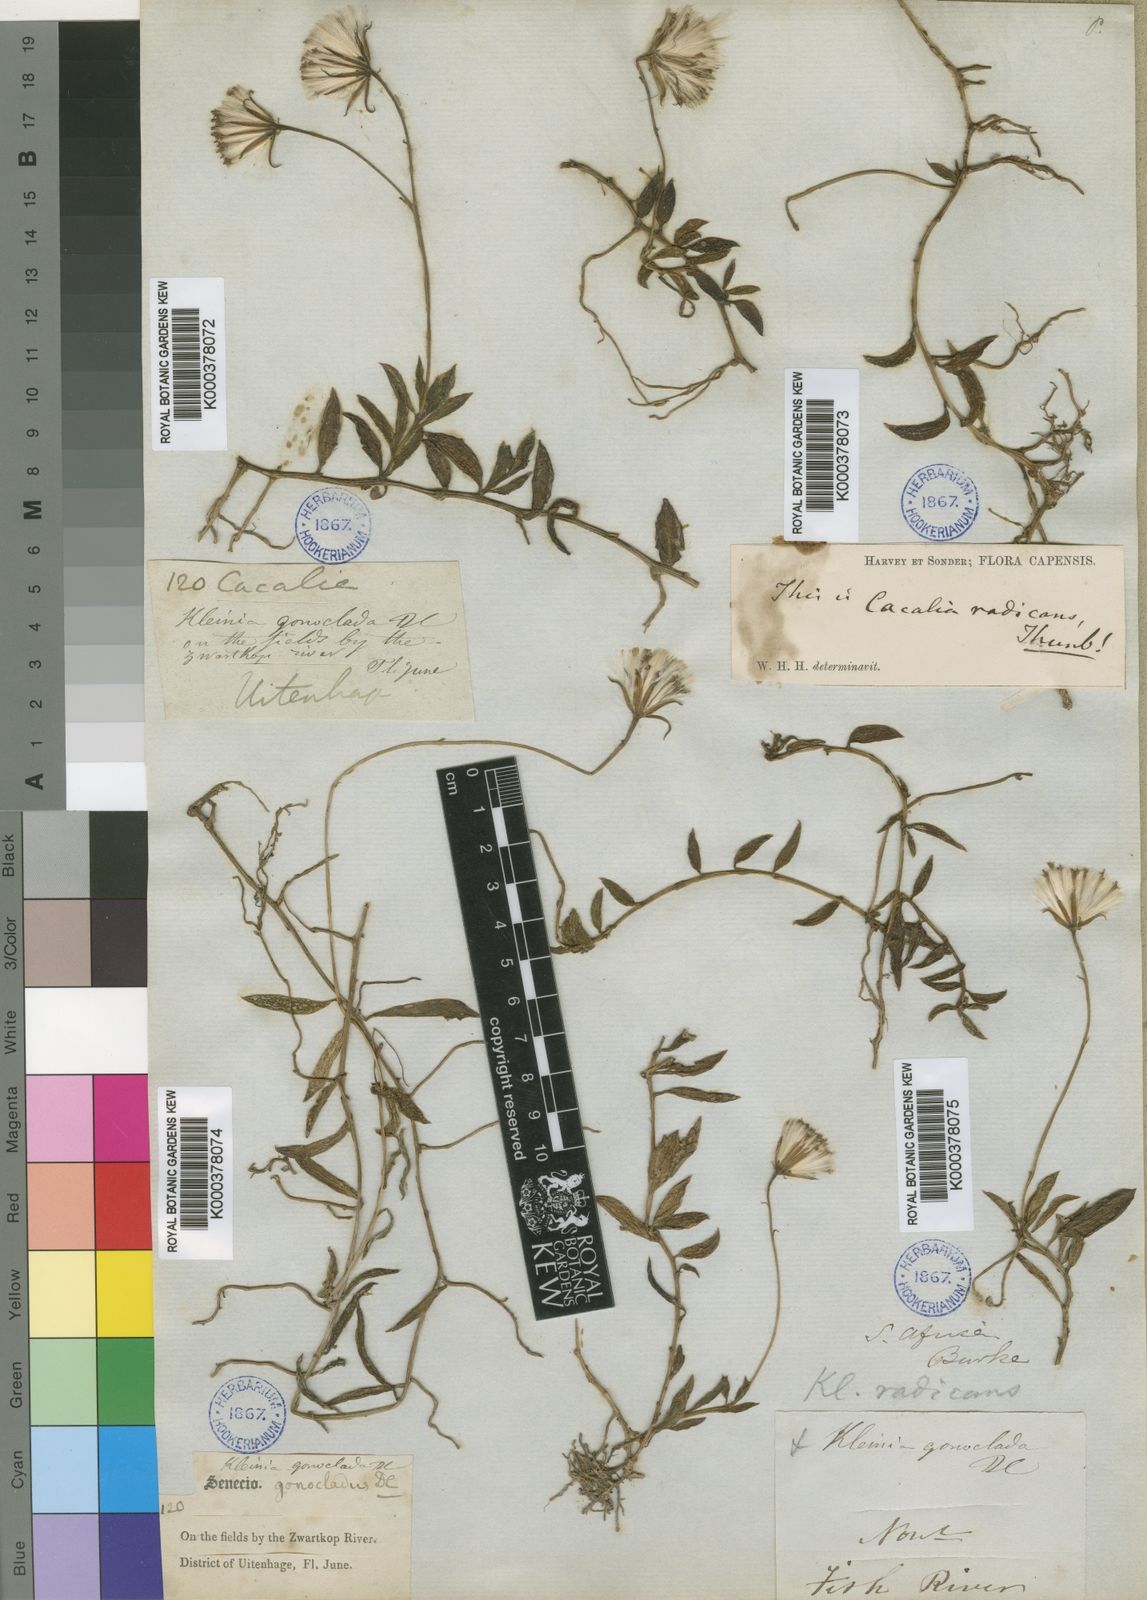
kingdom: Plantae
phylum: Tracheophyta
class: Magnoliopsida
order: Asterales
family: Asteraceae
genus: Curio
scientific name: Curio radicans
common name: Creeping-berry
